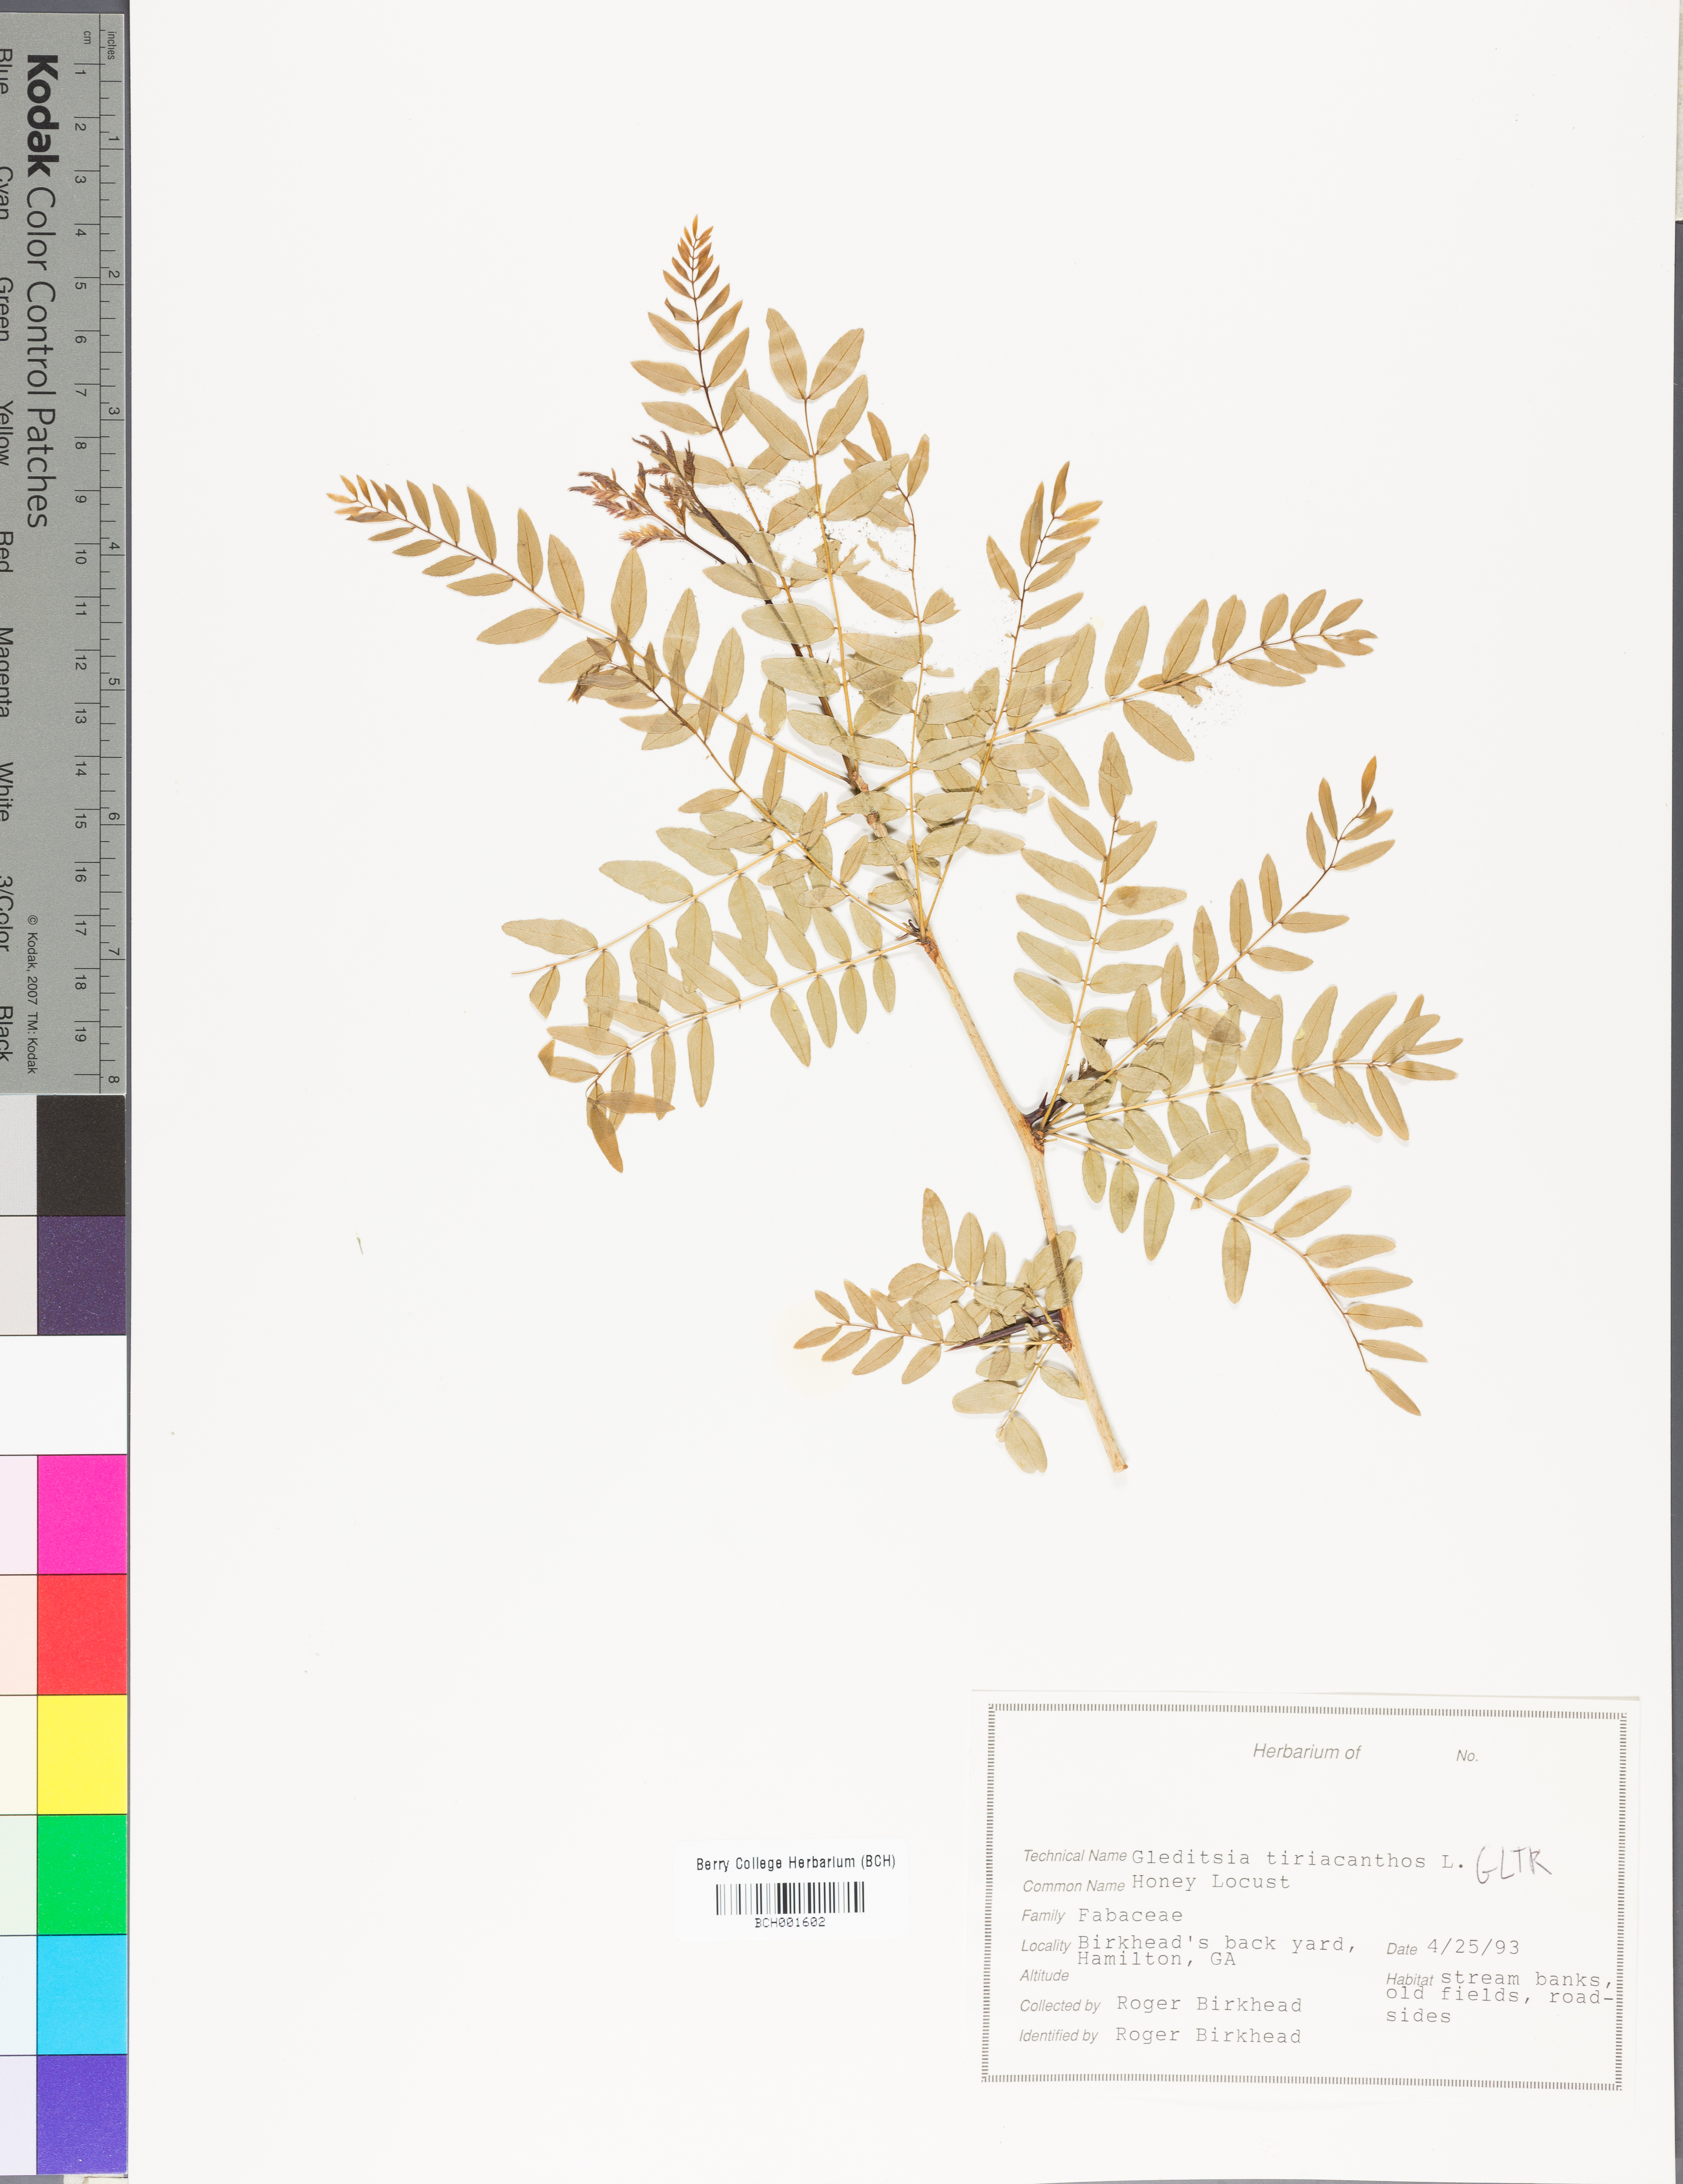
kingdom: Plantae
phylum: Tracheophyta
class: Magnoliopsida
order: Fabales
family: Fabaceae
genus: Gleditsia
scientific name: Gleditsia triacanthos
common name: Common honeylocust
